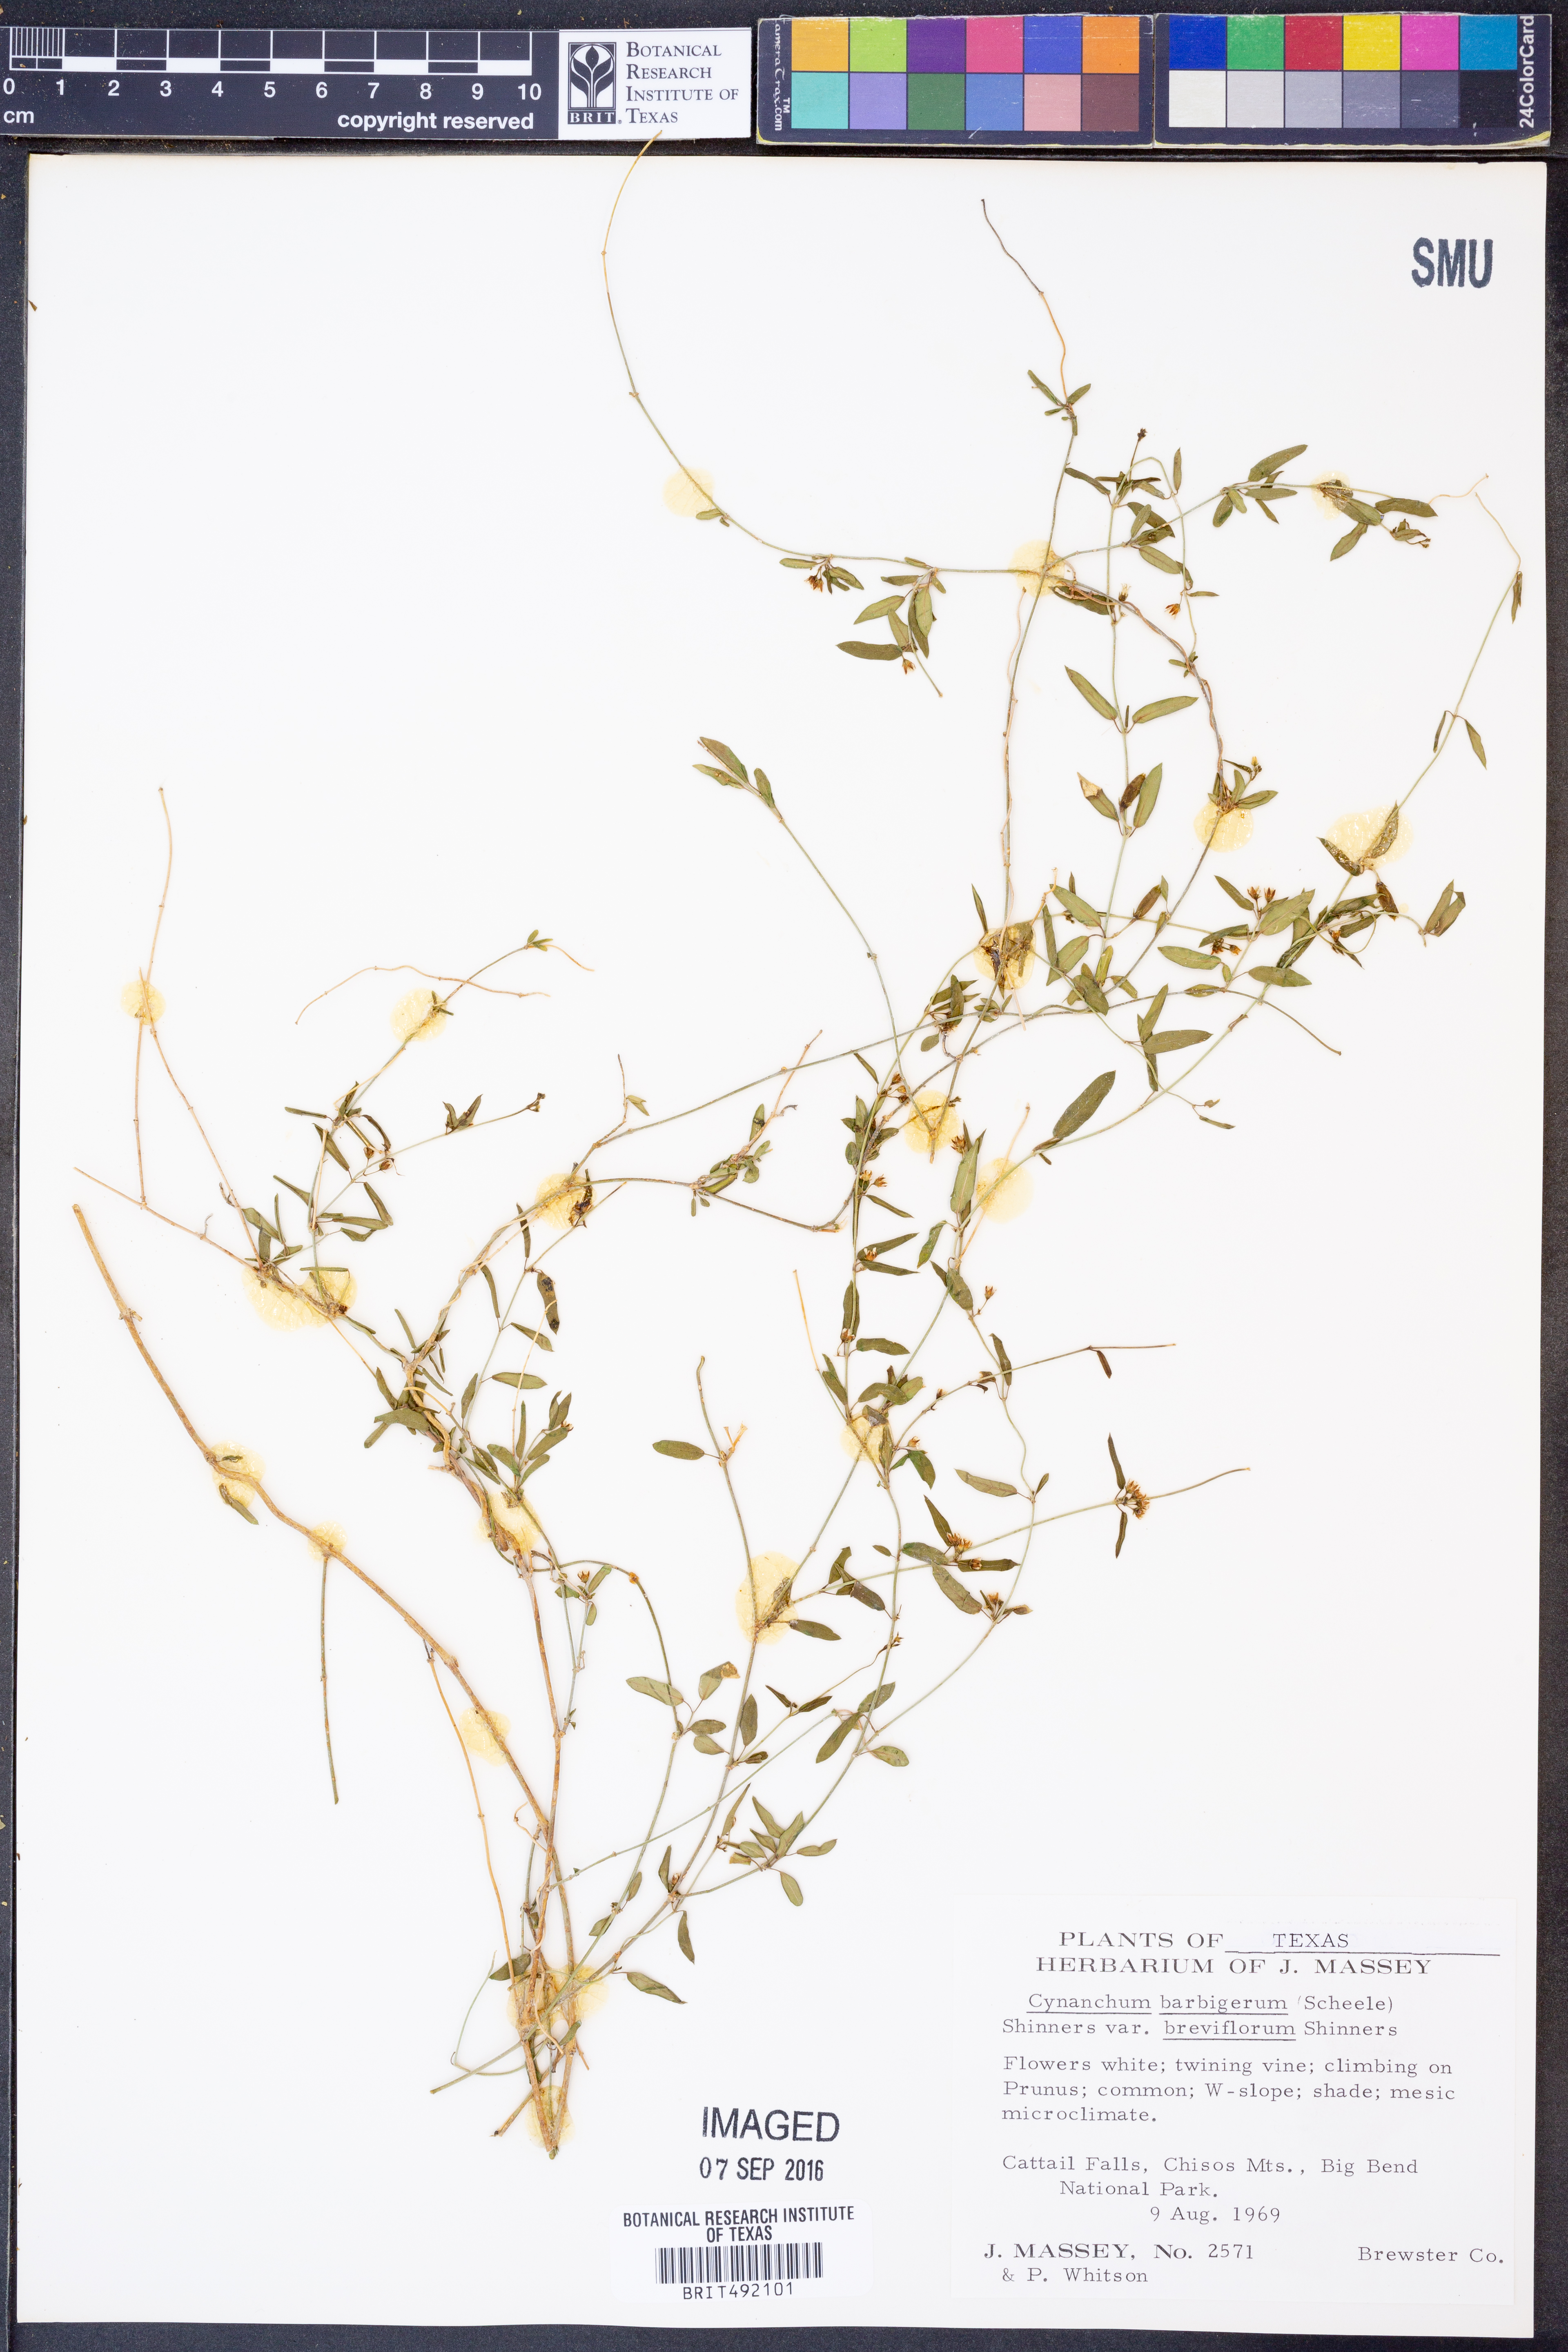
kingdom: Plantae
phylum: Tracheophyta
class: Magnoliopsida
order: Gentianales
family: Apocynaceae
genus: Metastelma
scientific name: Metastelma pringlei
